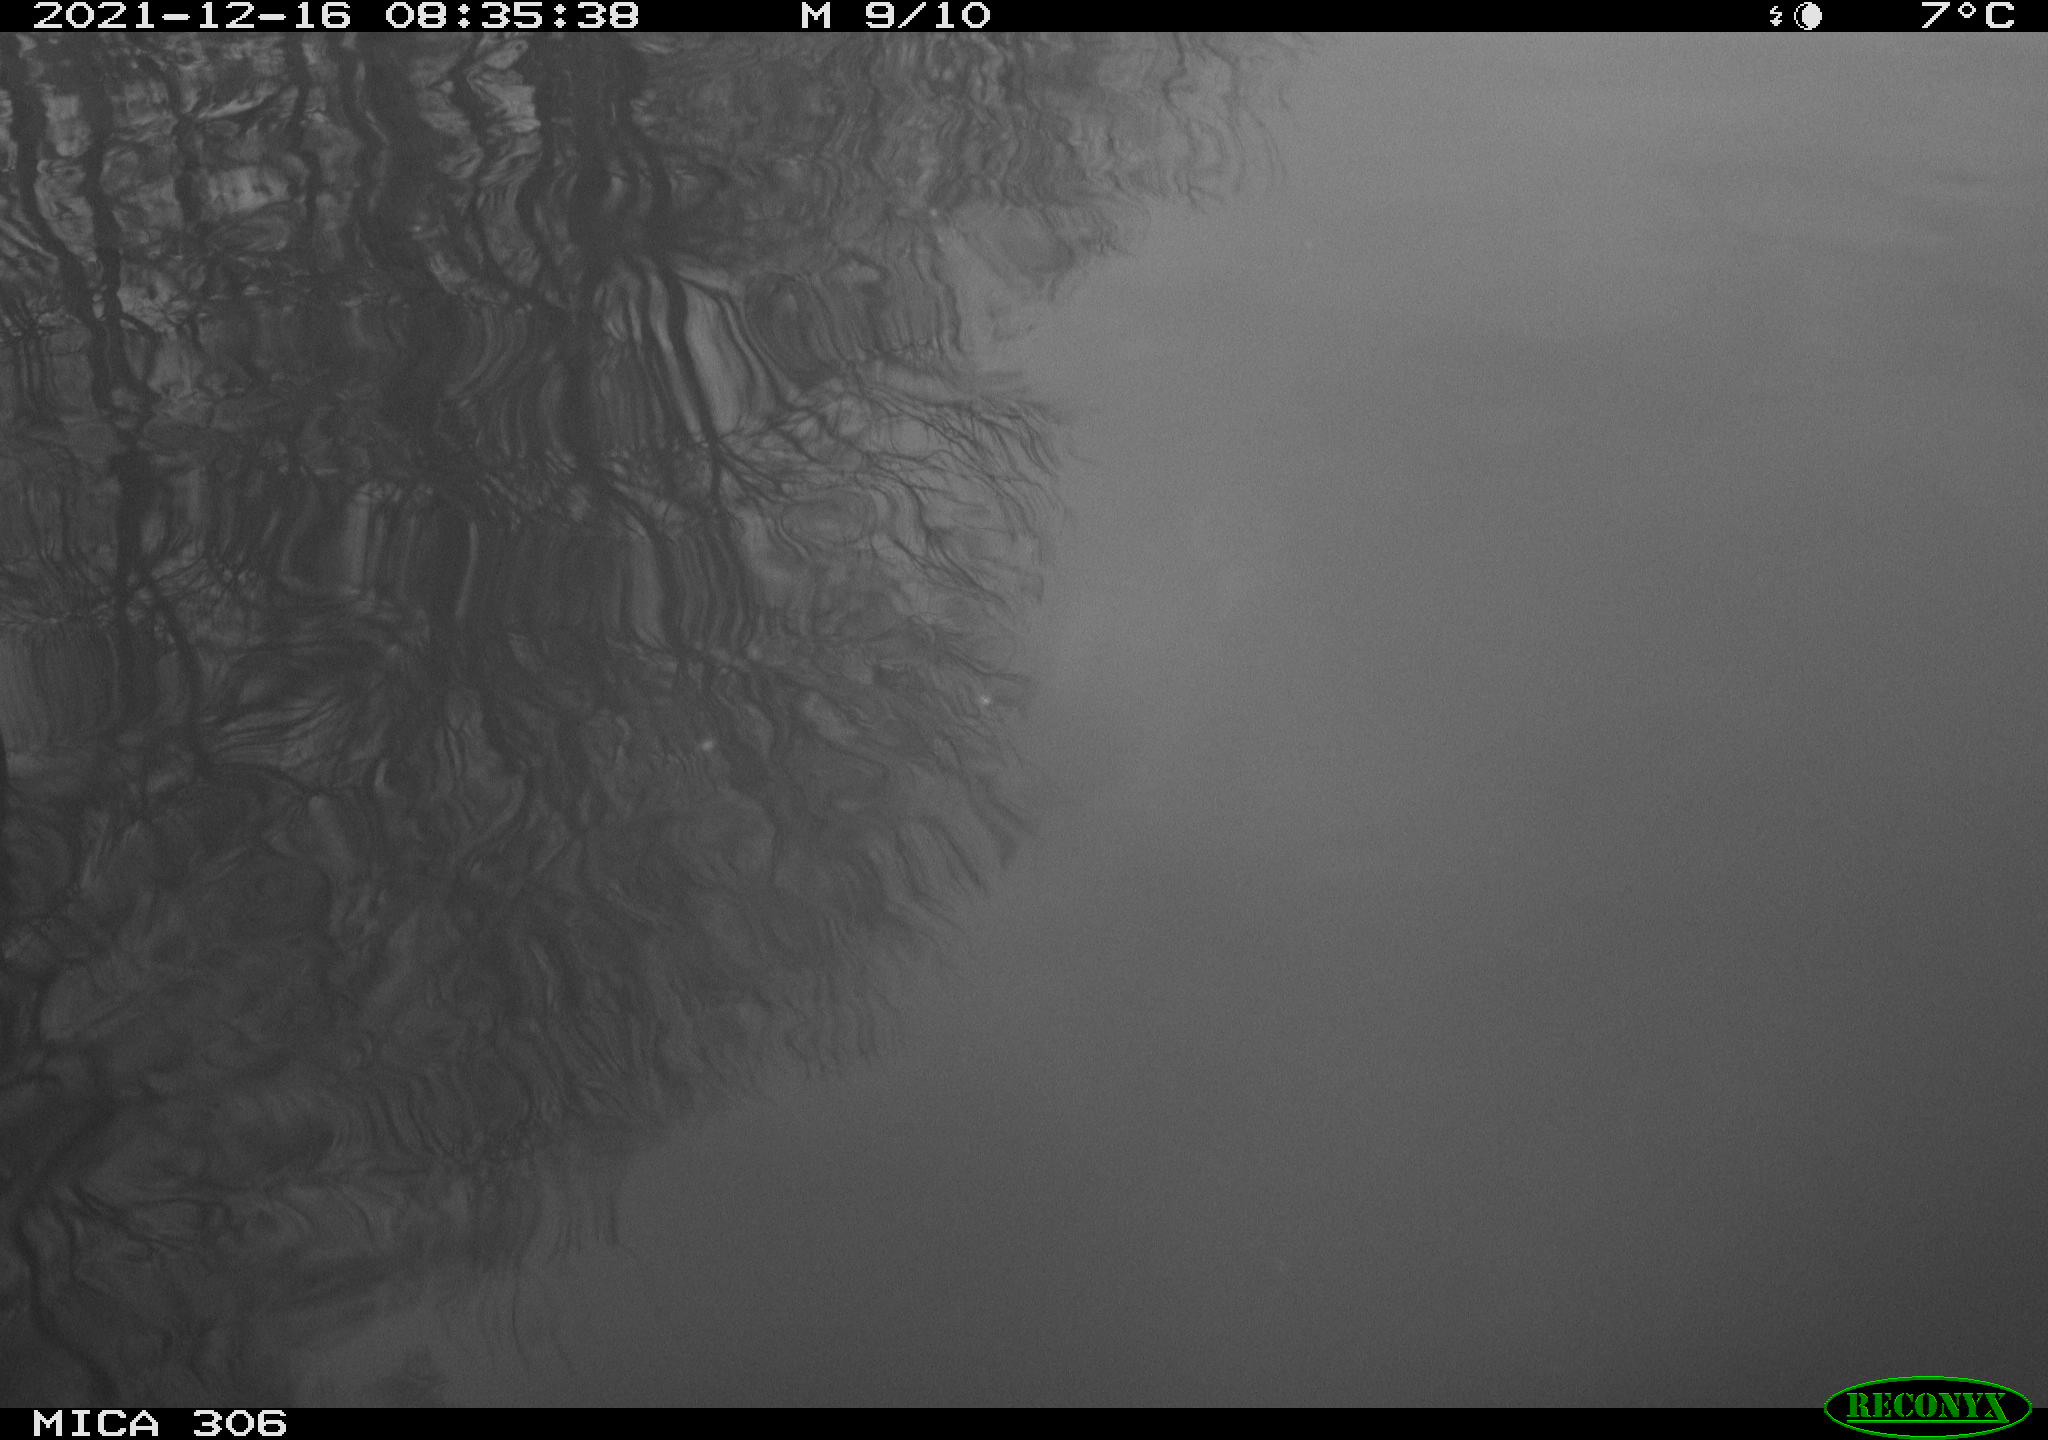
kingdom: Animalia
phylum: Chordata
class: Aves
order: Anseriformes
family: Anatidae
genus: Anas
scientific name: Anas
